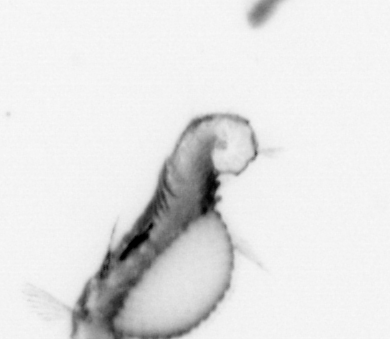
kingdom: Animalia
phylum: Annelida
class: Polychaeta
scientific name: Polychaeta
